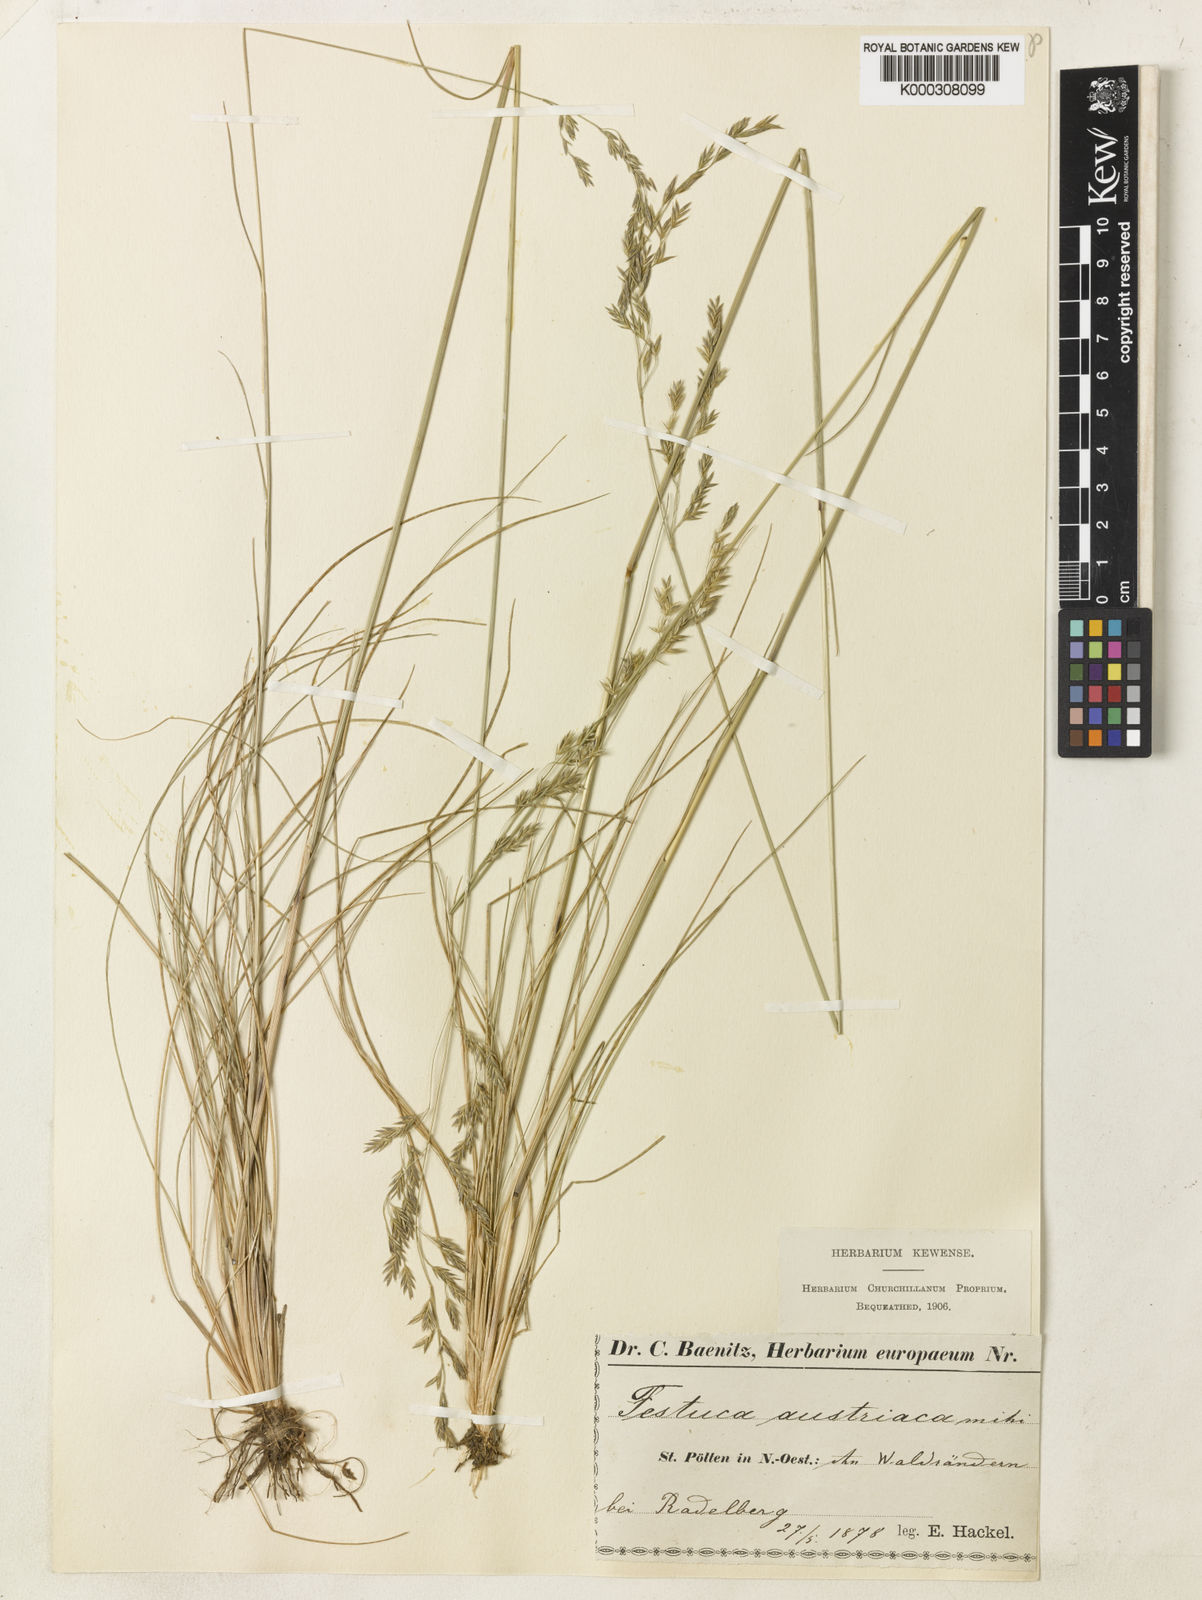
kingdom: Plantae
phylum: Tracheophyta
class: Liliopsida
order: Poales
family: Poaceae
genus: Festuca
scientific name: Festuca amethystina
